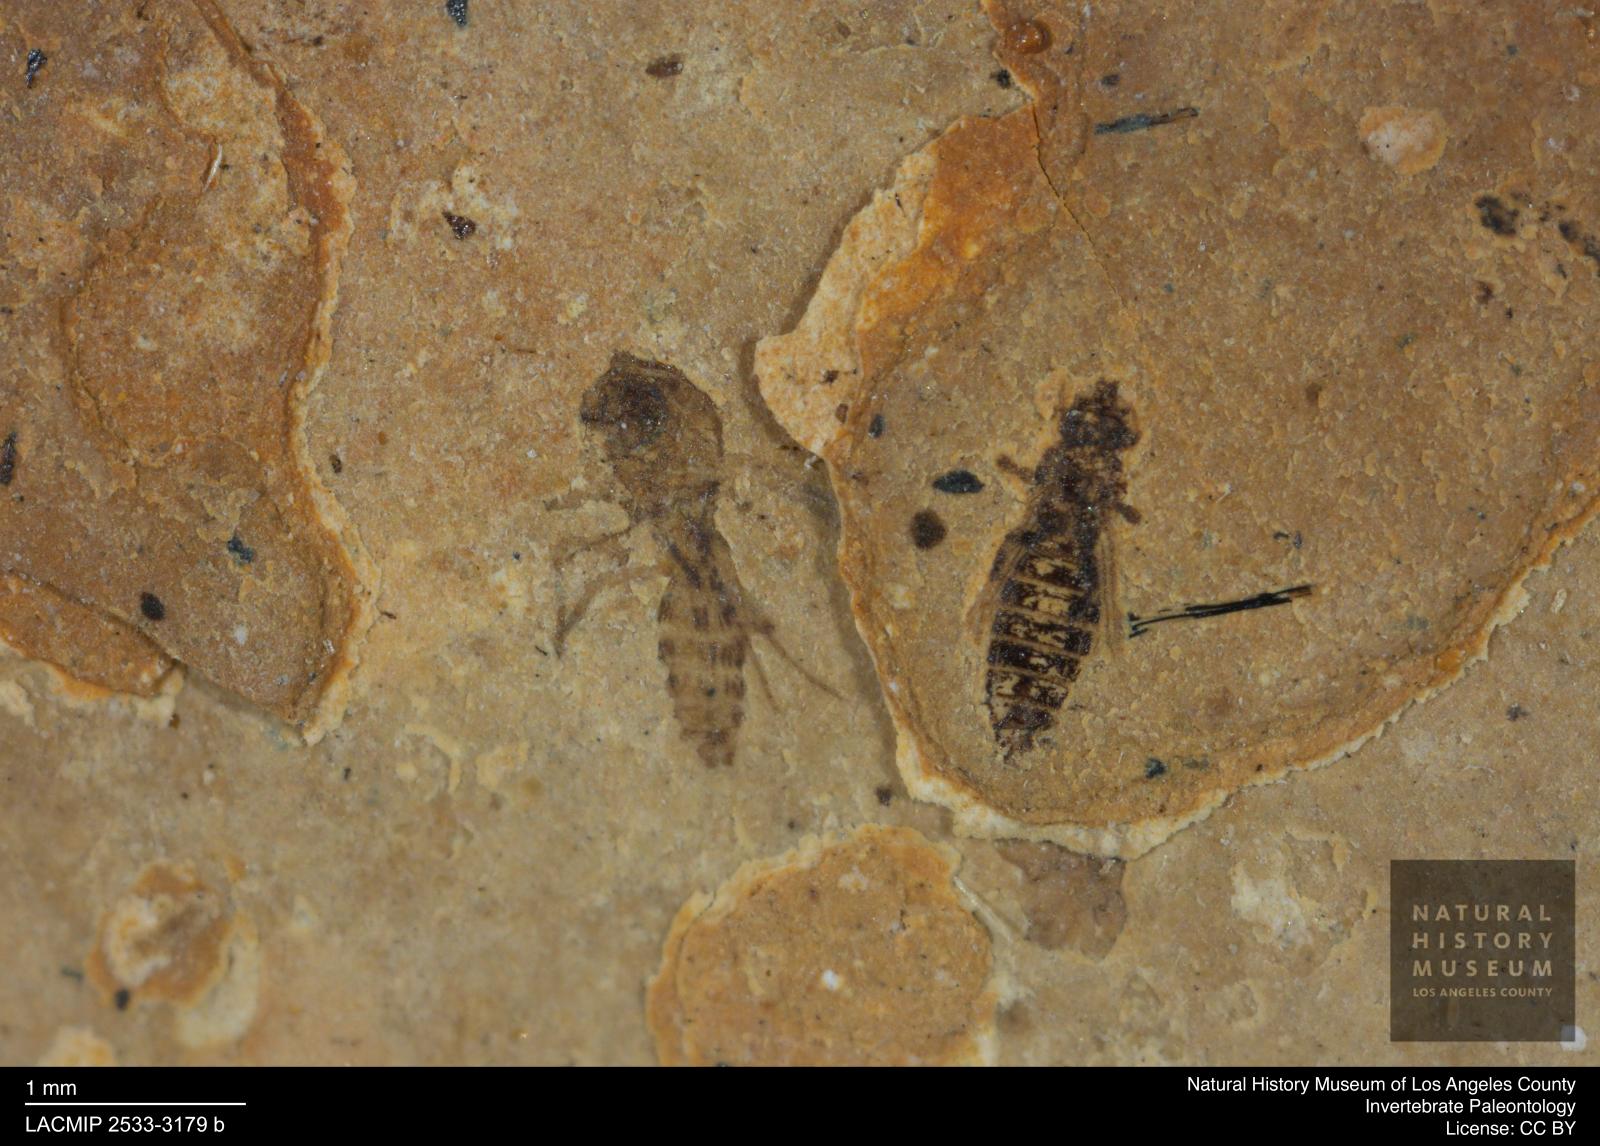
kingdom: Animalia
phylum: Arthropoda
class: Insecta
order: Thysanoptera
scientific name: Thysanoptera
